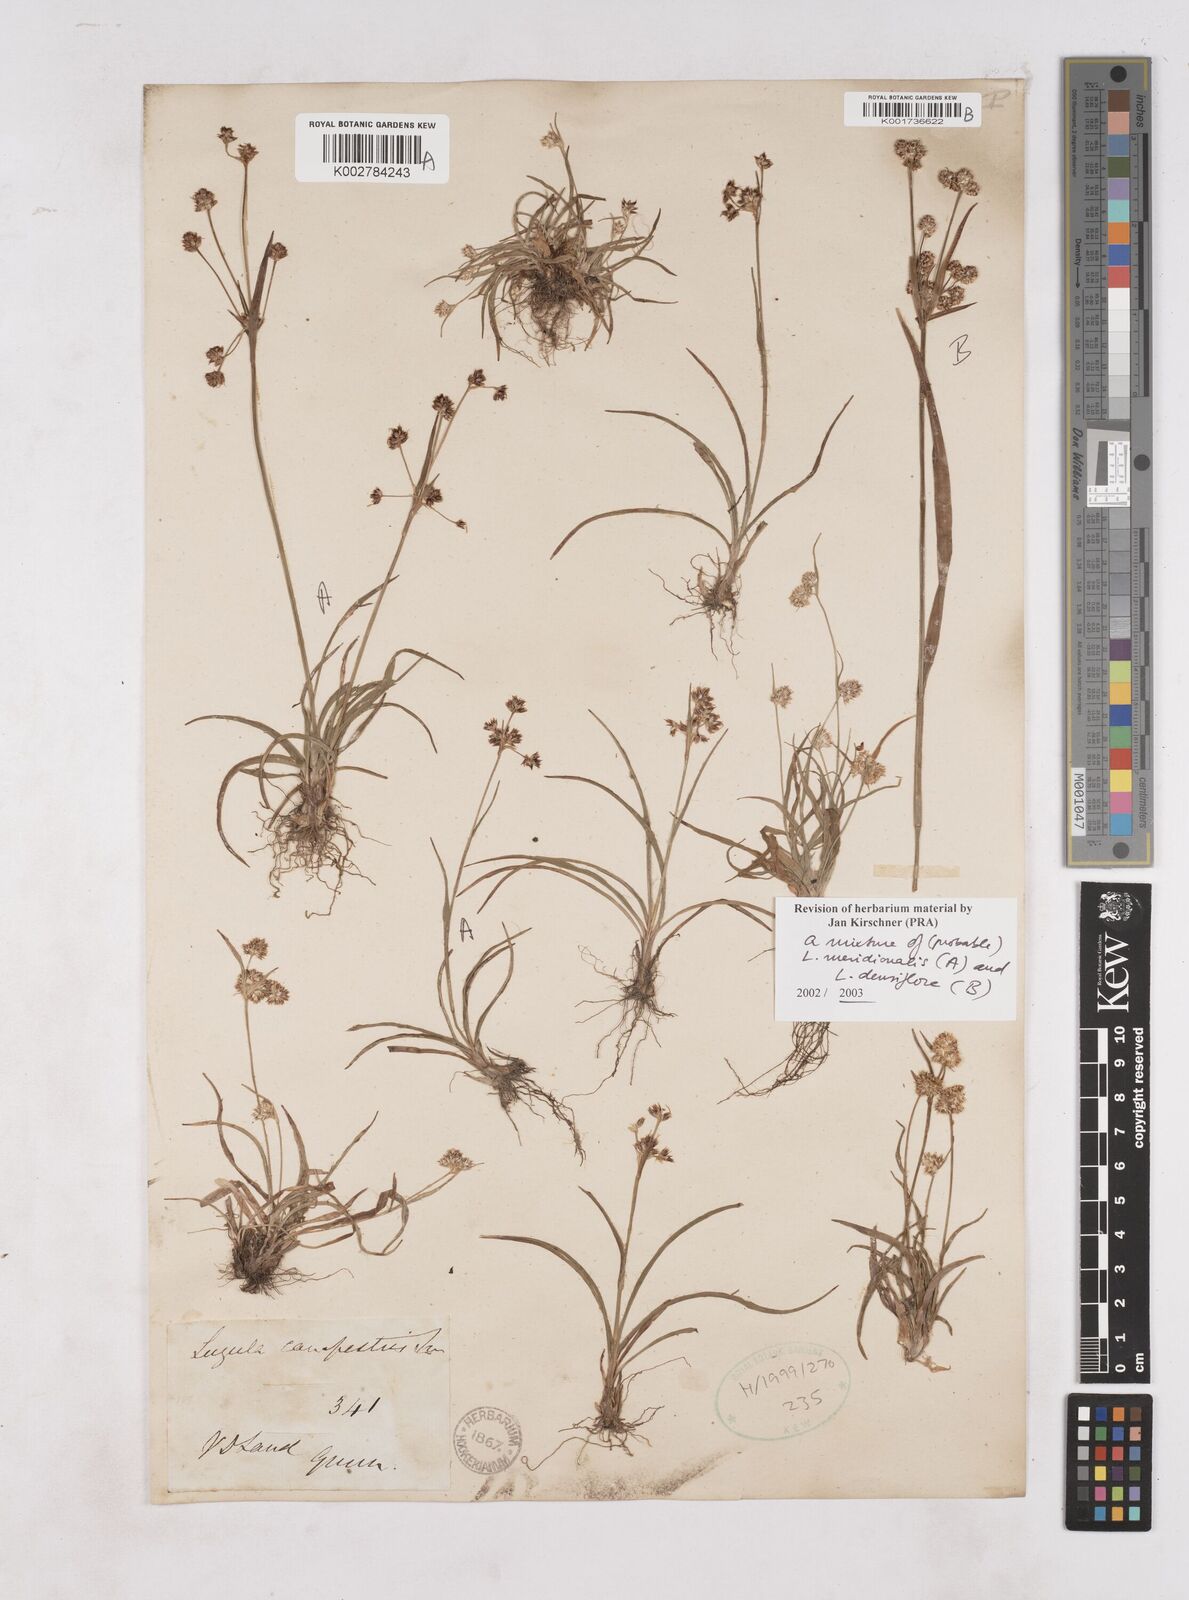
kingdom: Plantae
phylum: Tracheophyta
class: Liliopsida
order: Poales
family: Juncaceae
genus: Luzula
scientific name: Luzula densiflora
